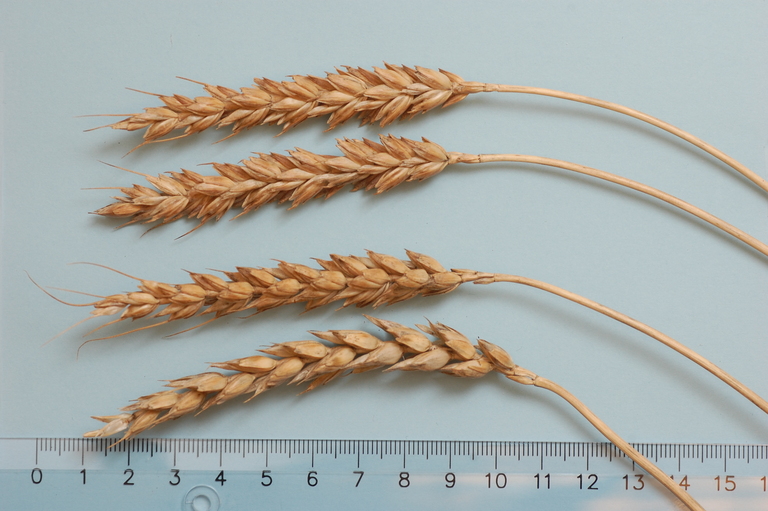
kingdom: Plantae
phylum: Tracheophyta
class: Liliopsida
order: Poales
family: Poaceae
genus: Triticum
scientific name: Triticum aestivum
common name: Common wheat
